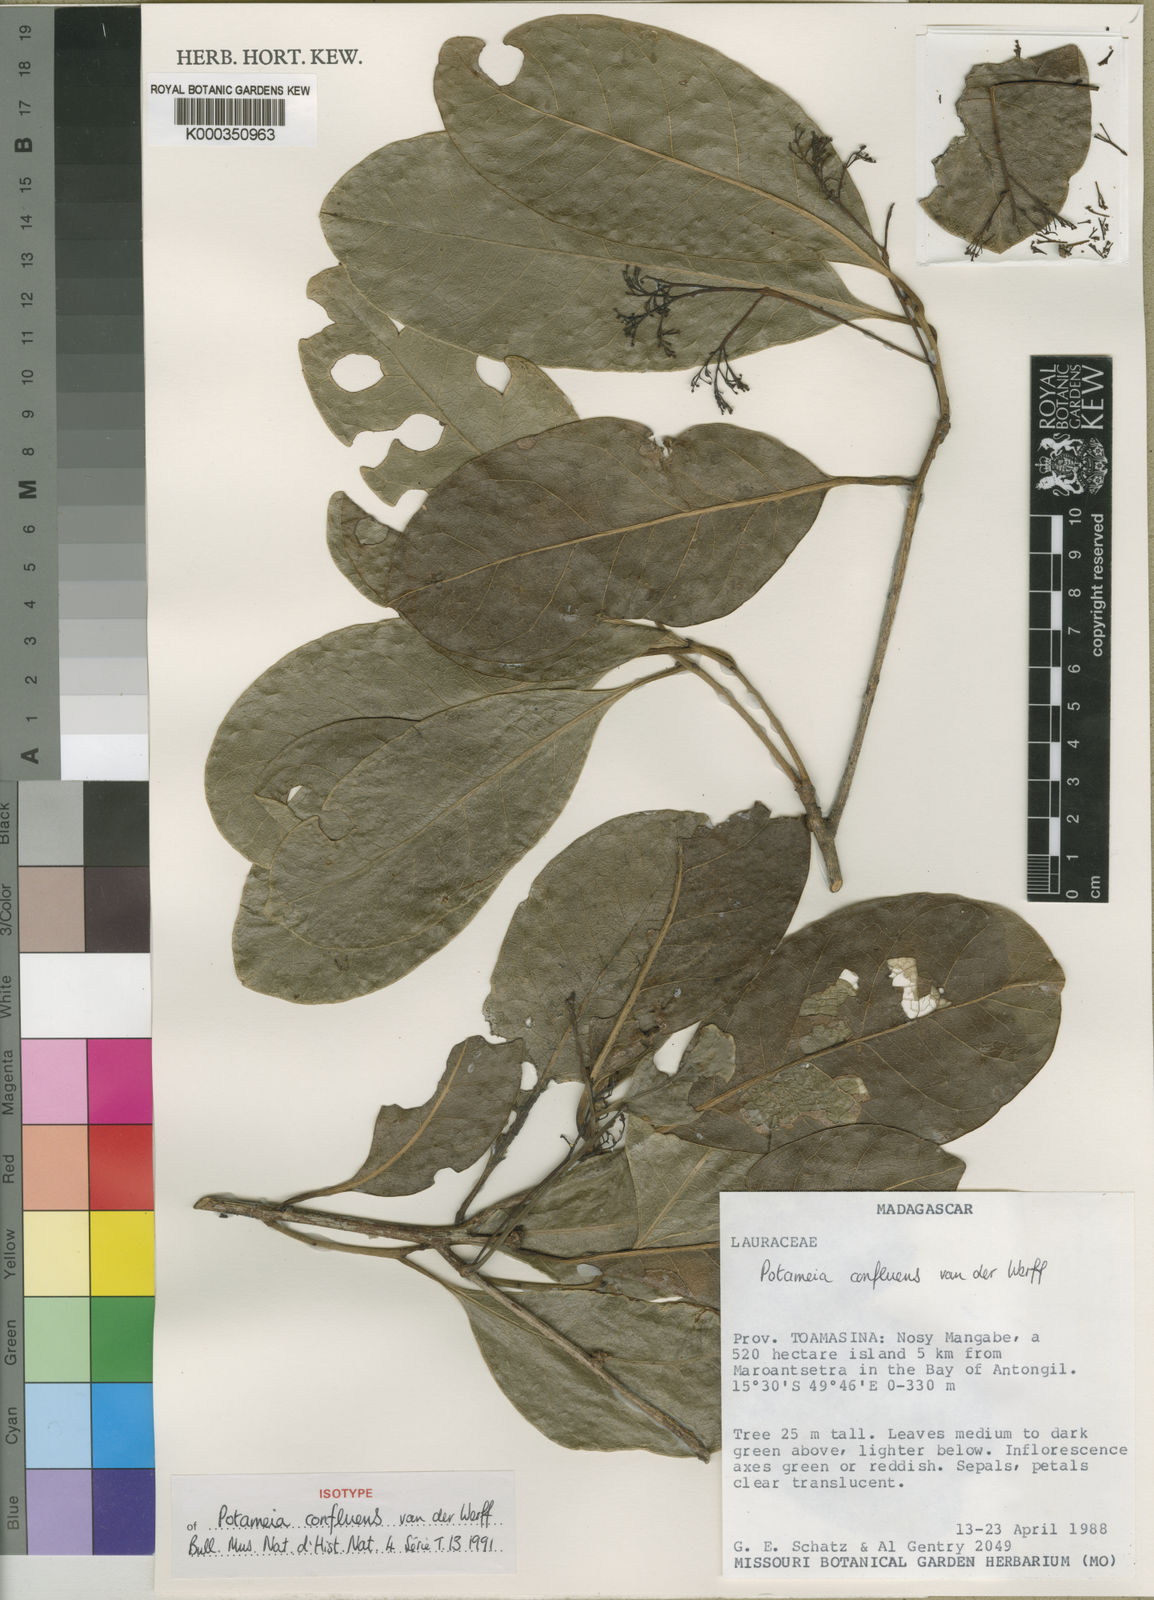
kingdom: Plantae
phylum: Tracheophyta
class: Magnoliopsida
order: Laurales
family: Lauraceae
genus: Potameia
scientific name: Potameia
